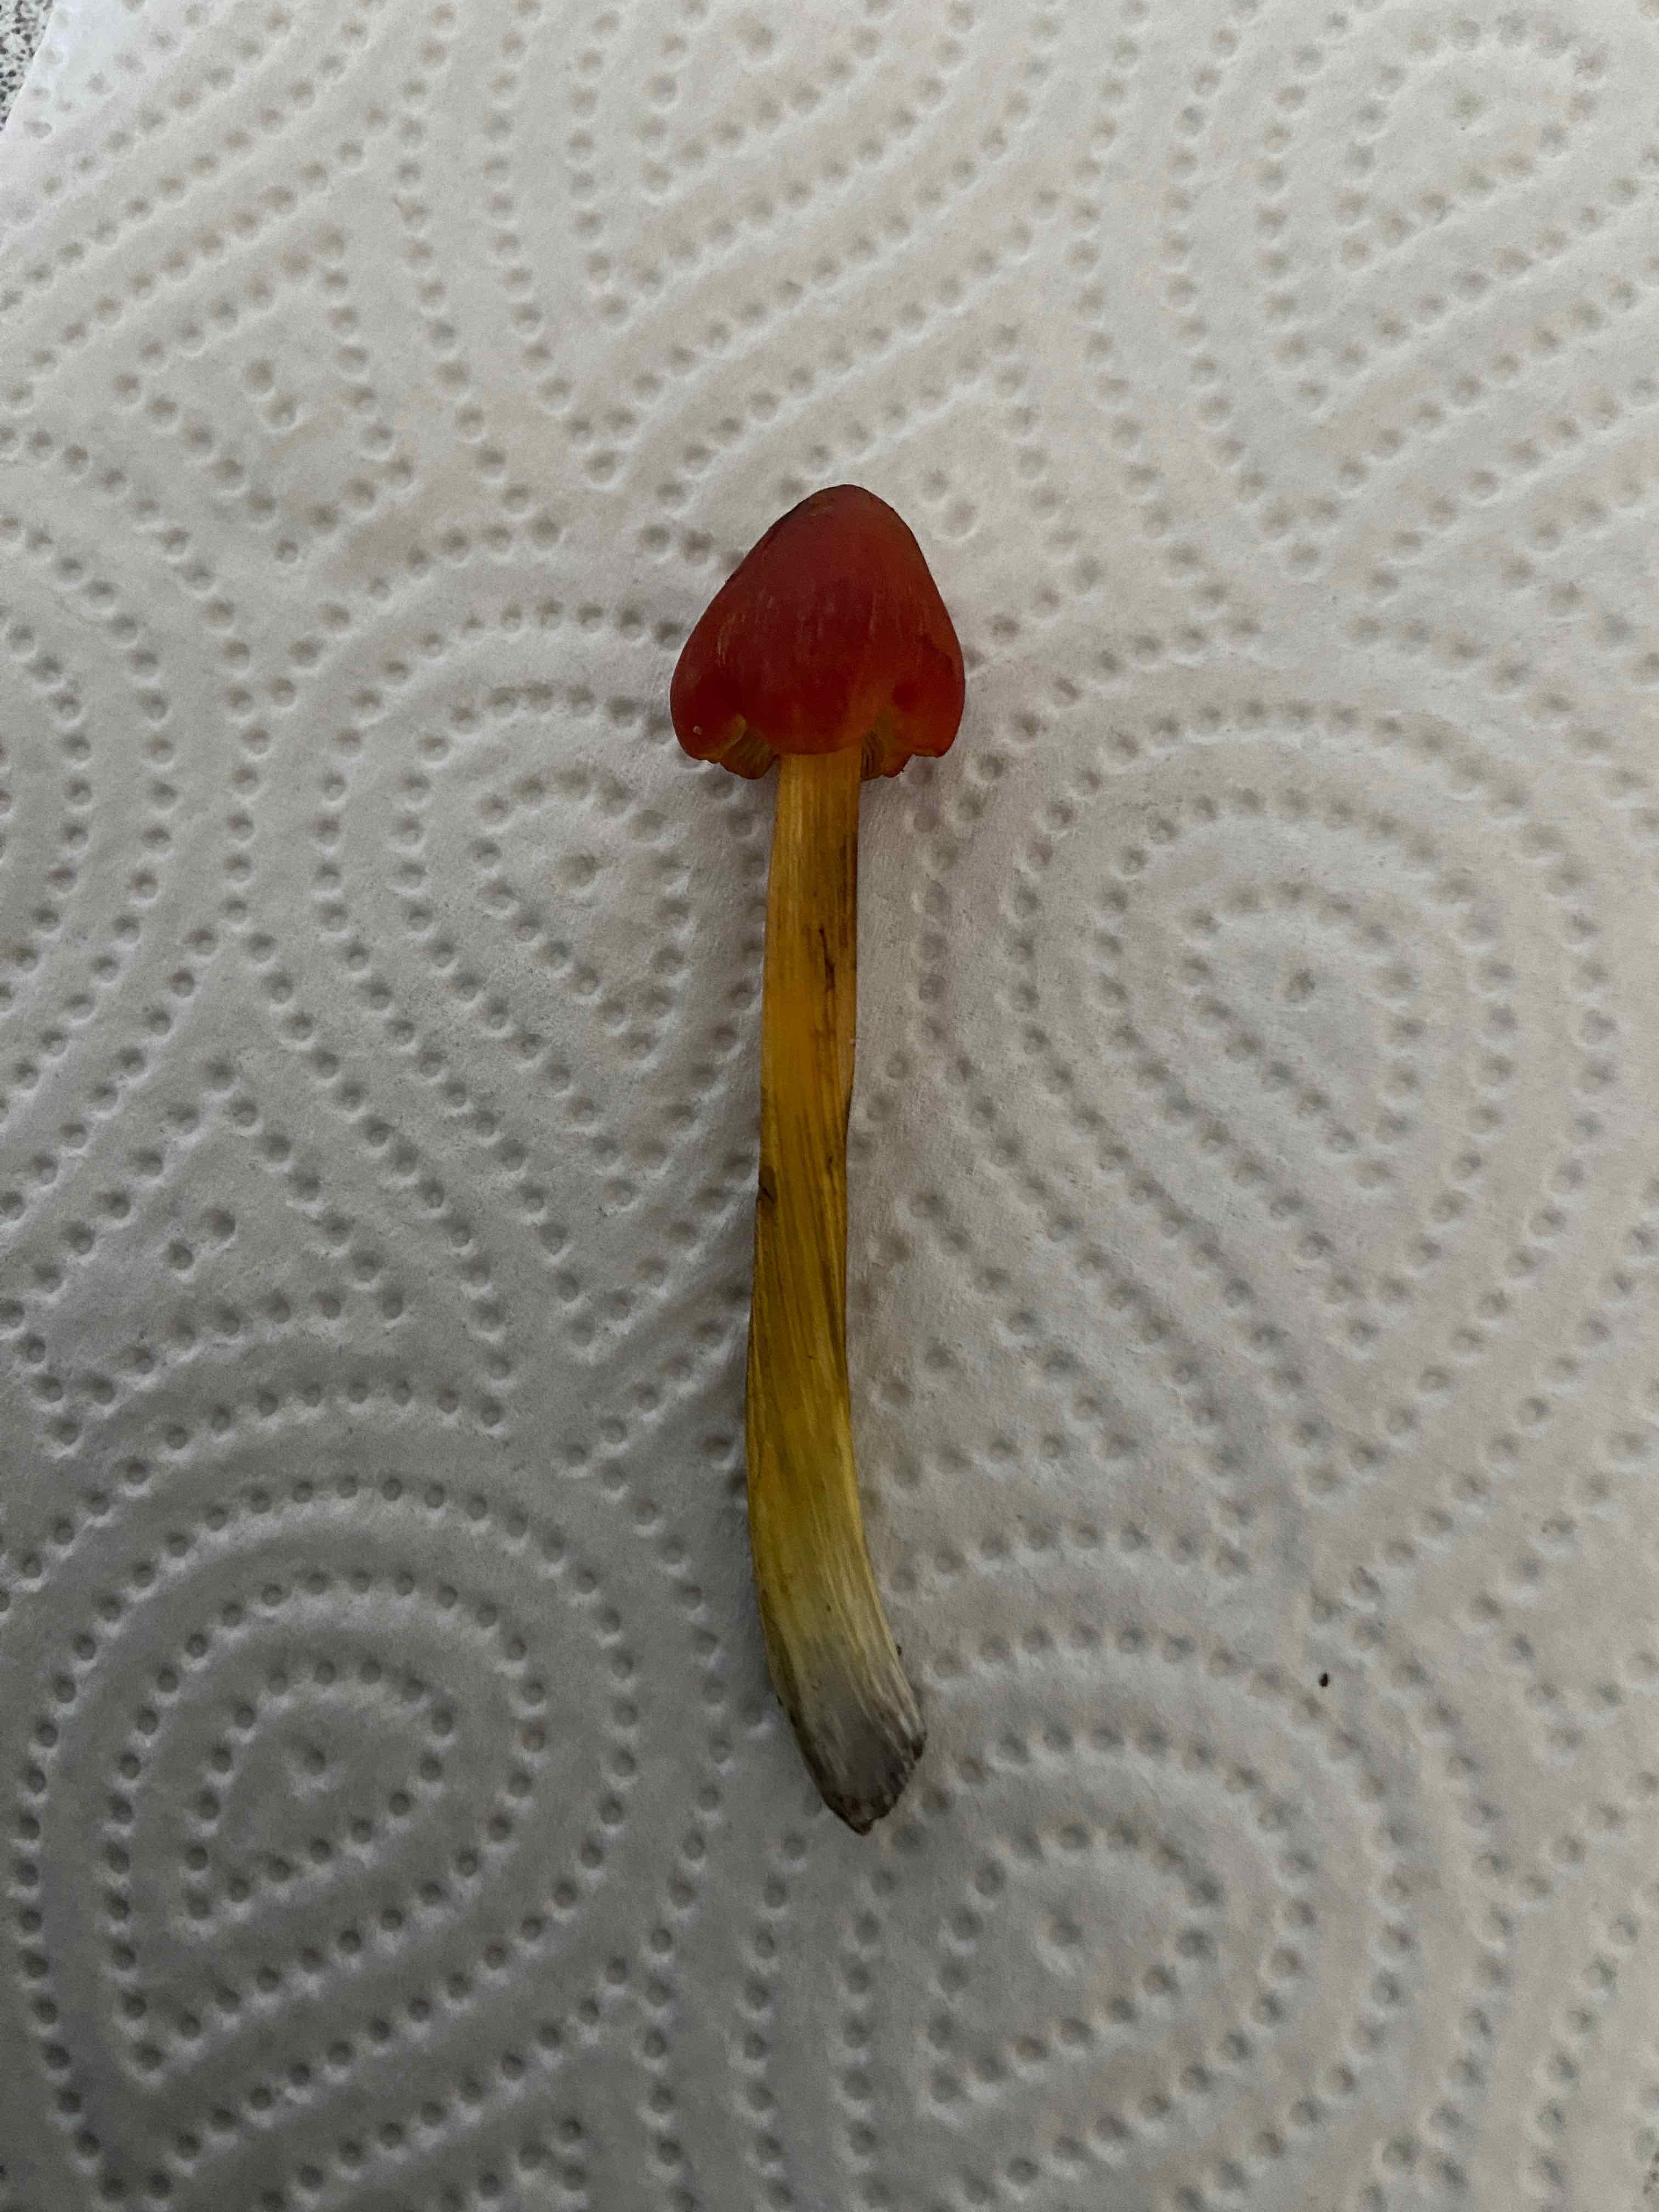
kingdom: Fungi
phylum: Basidiomycota
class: Agaricomycetes
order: Agaricales
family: Hygrophoraceae
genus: Hygrocybe
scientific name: Hygrocybe conica
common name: kegle-vokshat
